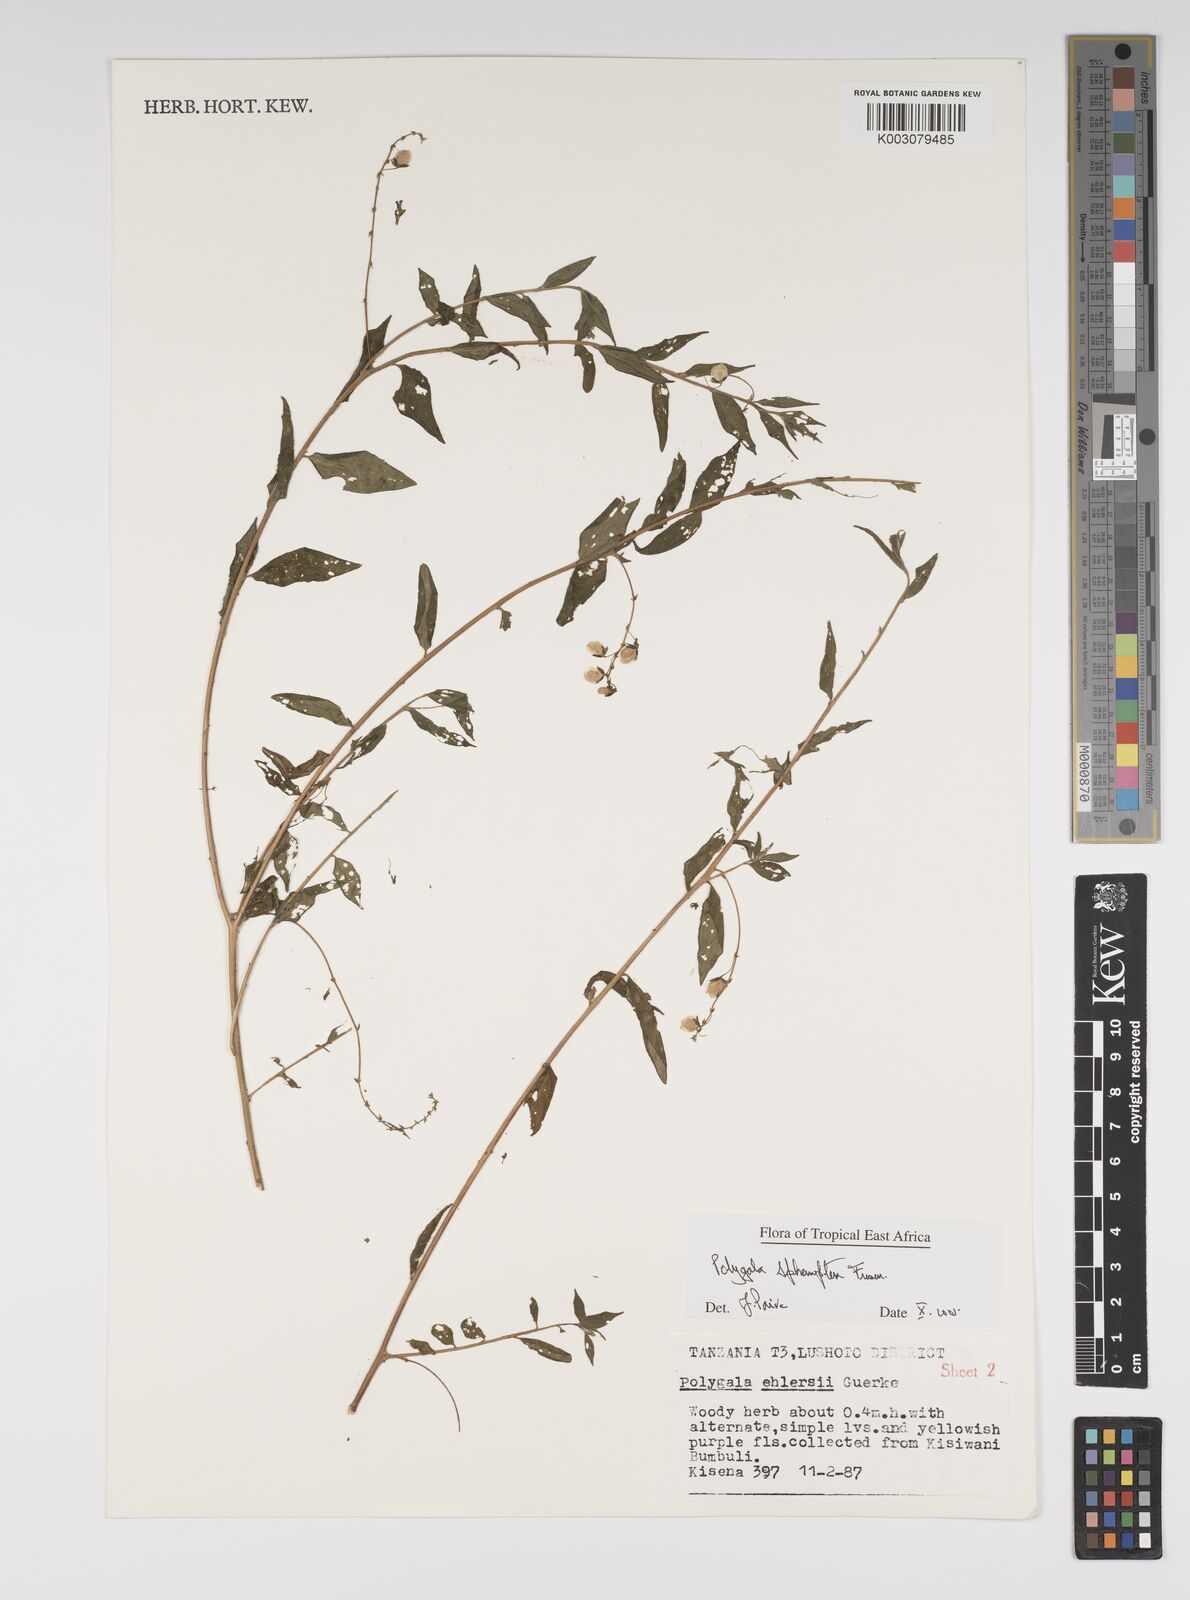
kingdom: Plantae
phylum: Tracheophyta
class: Magnoliopsida
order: Fabales
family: Polygalaceae
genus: Polygala
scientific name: Polygala sphenoptera
